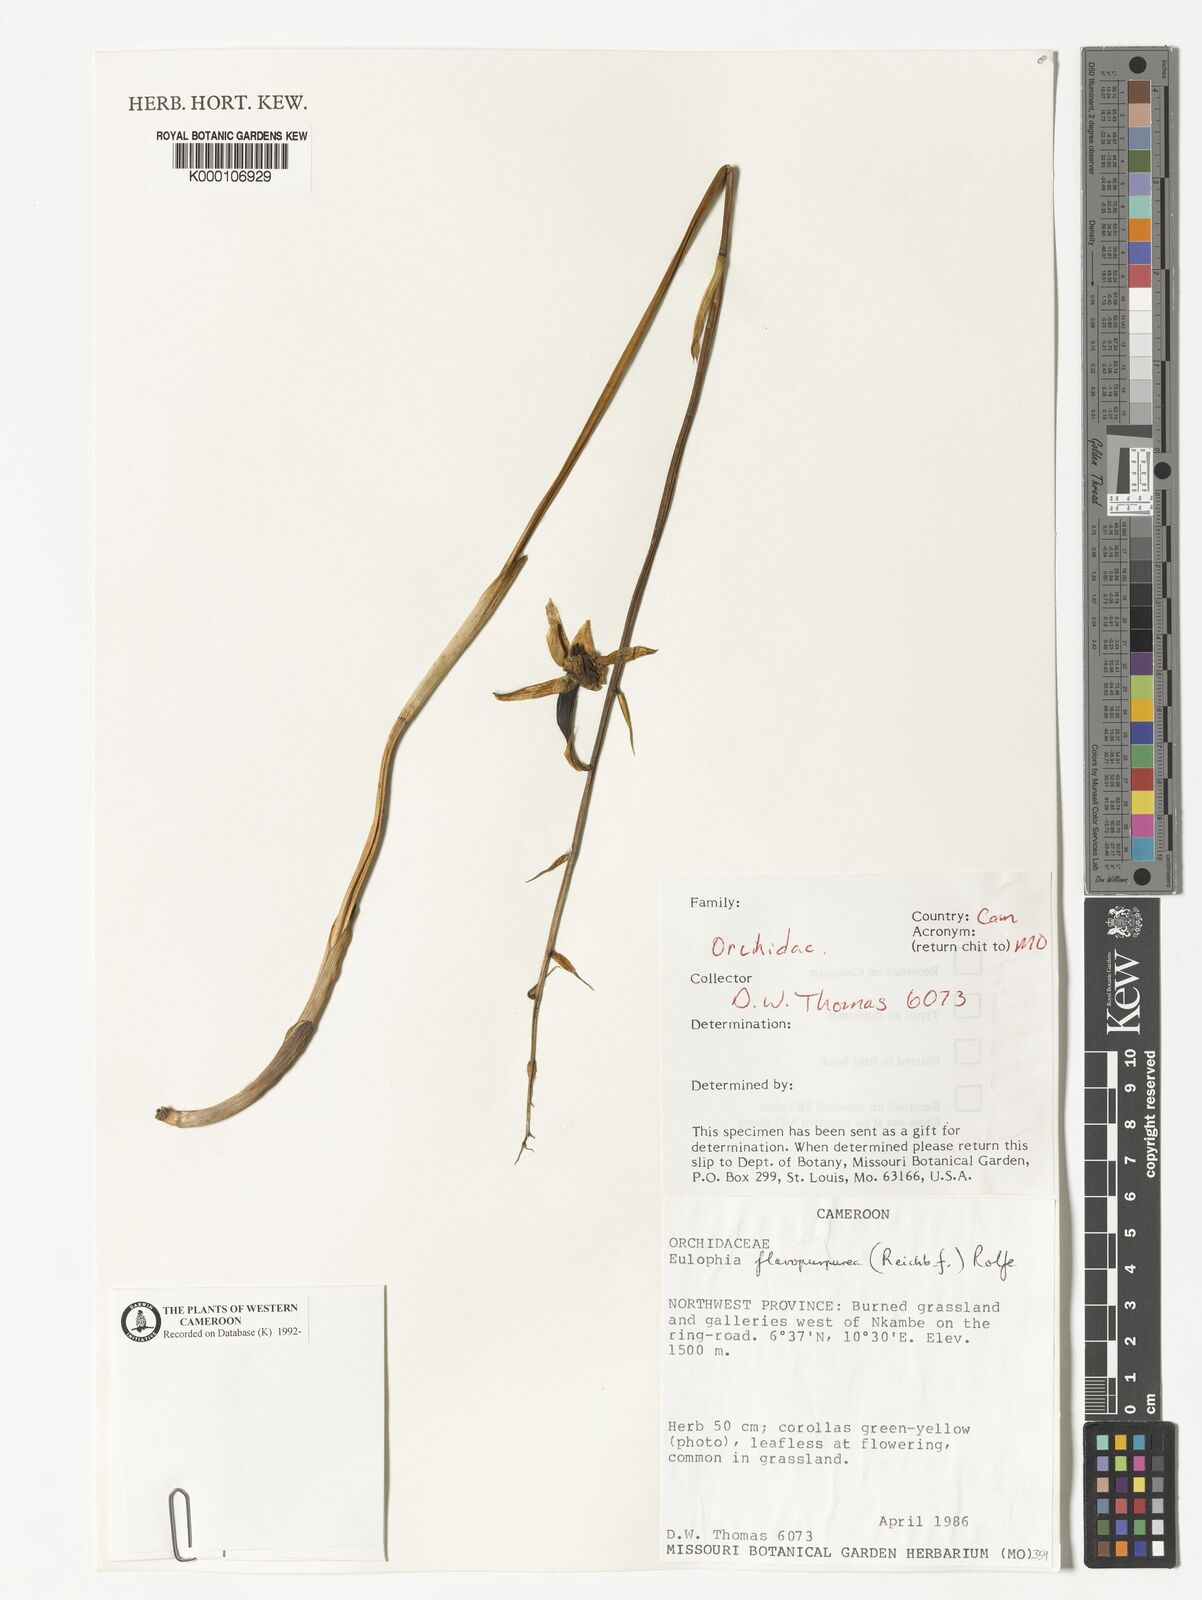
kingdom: Plantae
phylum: Tracheophyta
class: Liliopsida
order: Asparagales
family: Orchidaceae
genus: Eulophia
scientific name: Eulophia flavopurpurea
